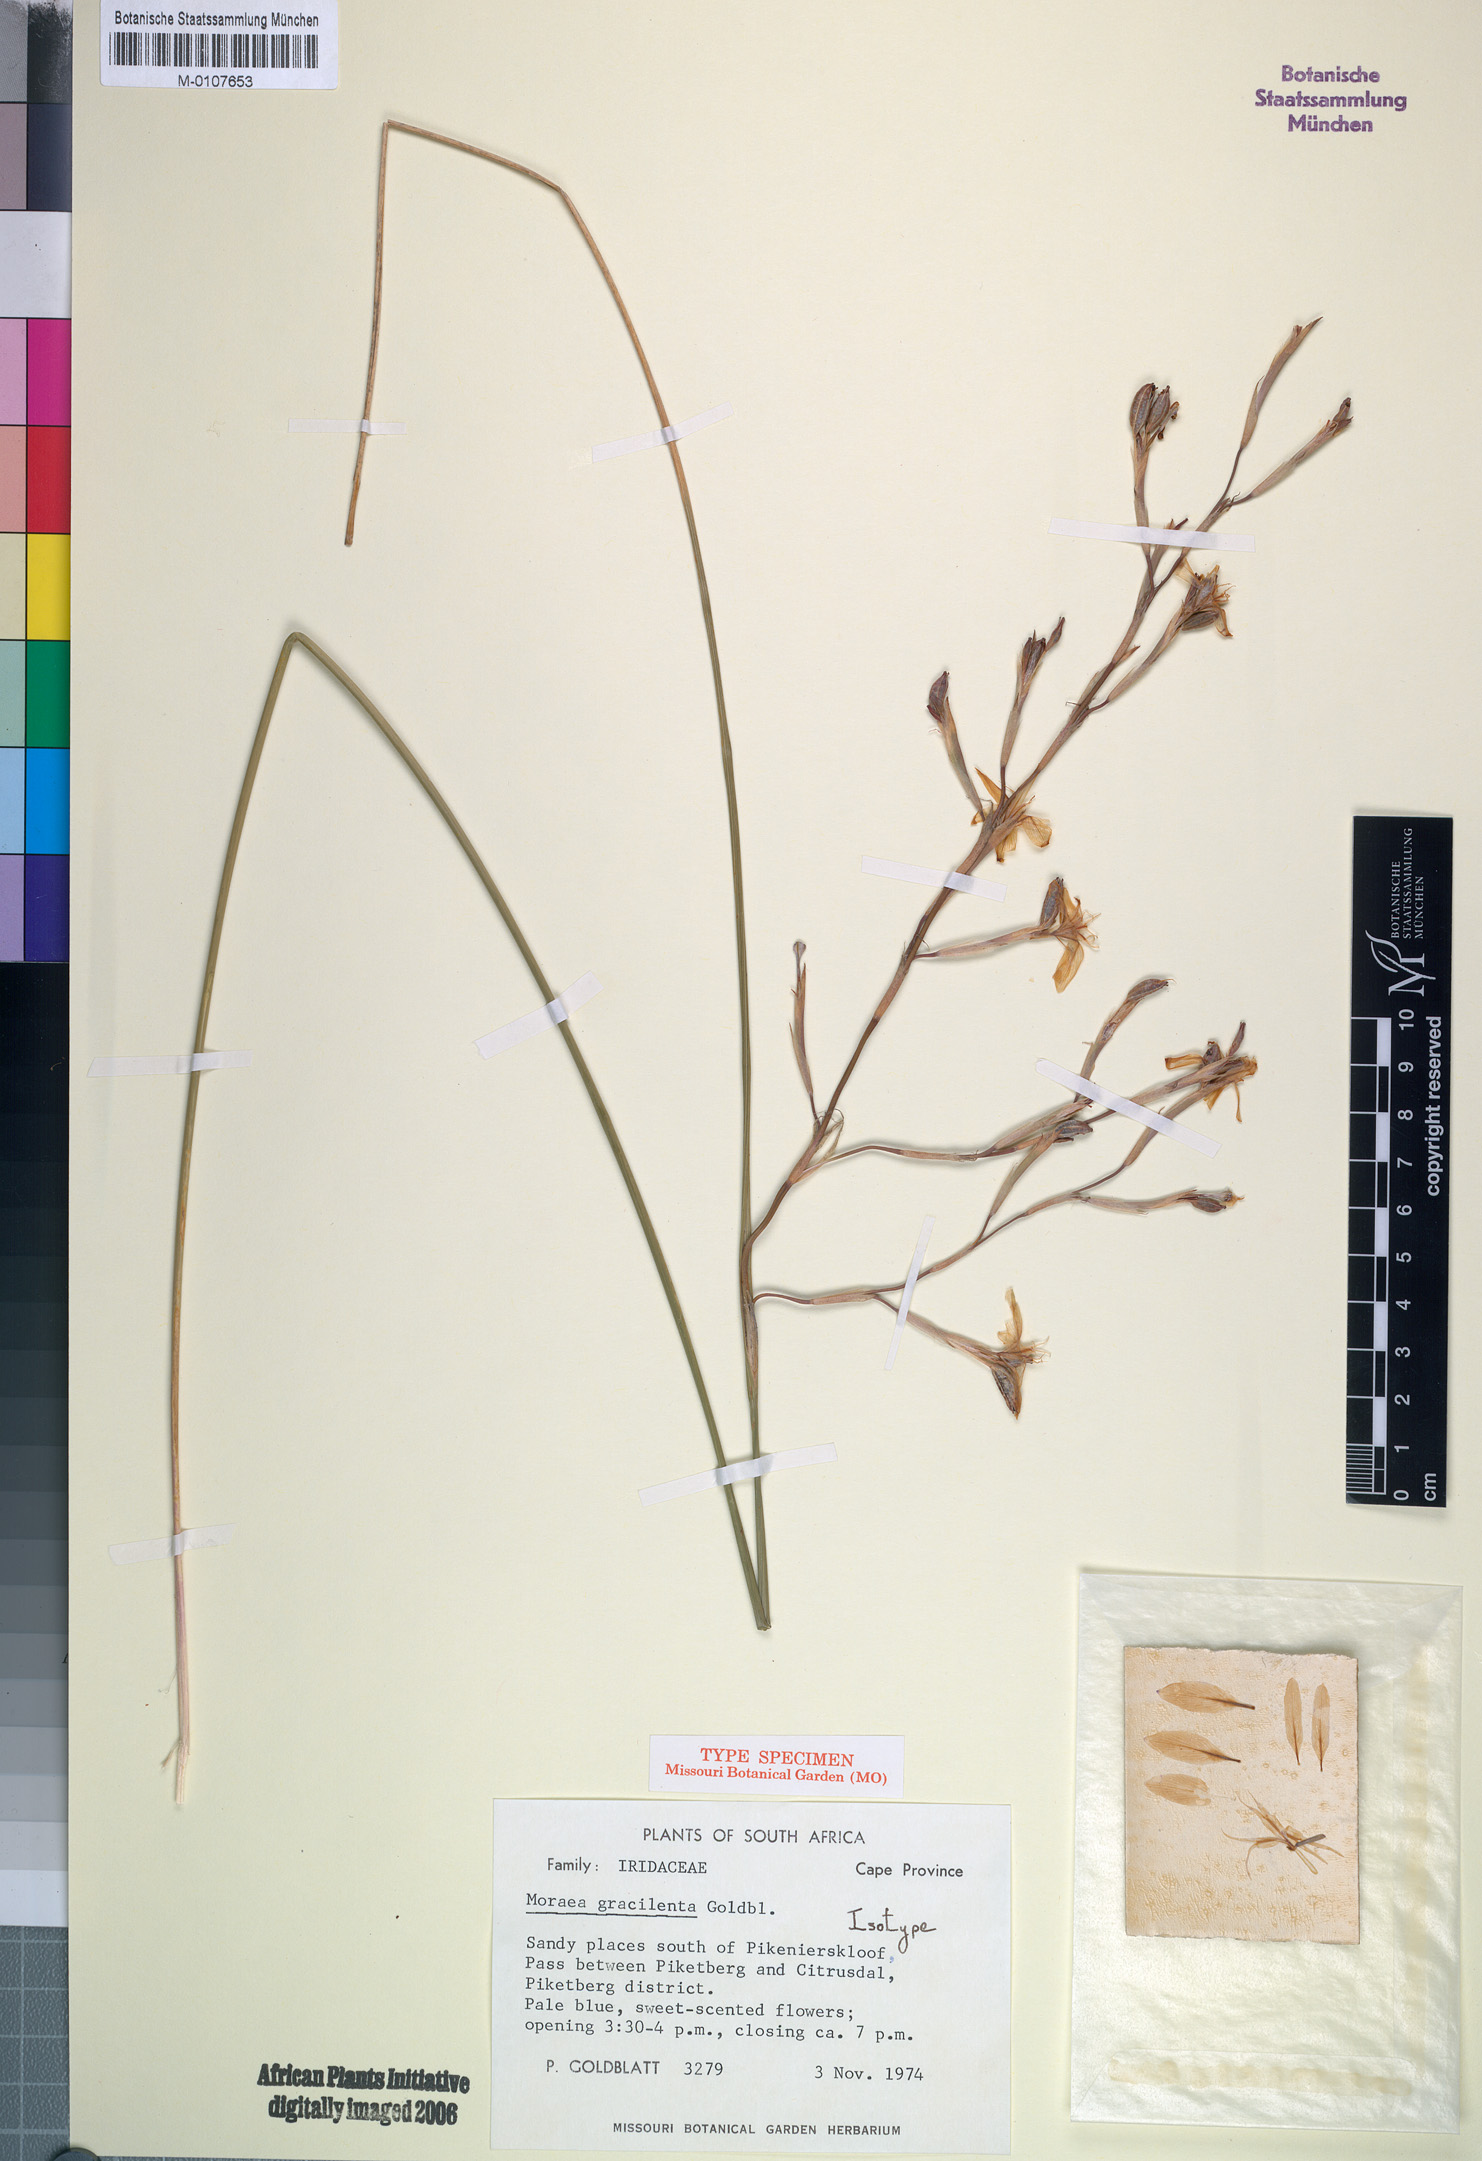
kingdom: Plantae
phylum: Tracheophyta
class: Liliopsida
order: Asparagales
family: Iridaceae
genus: Moraea
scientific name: Moraea gracilenta
